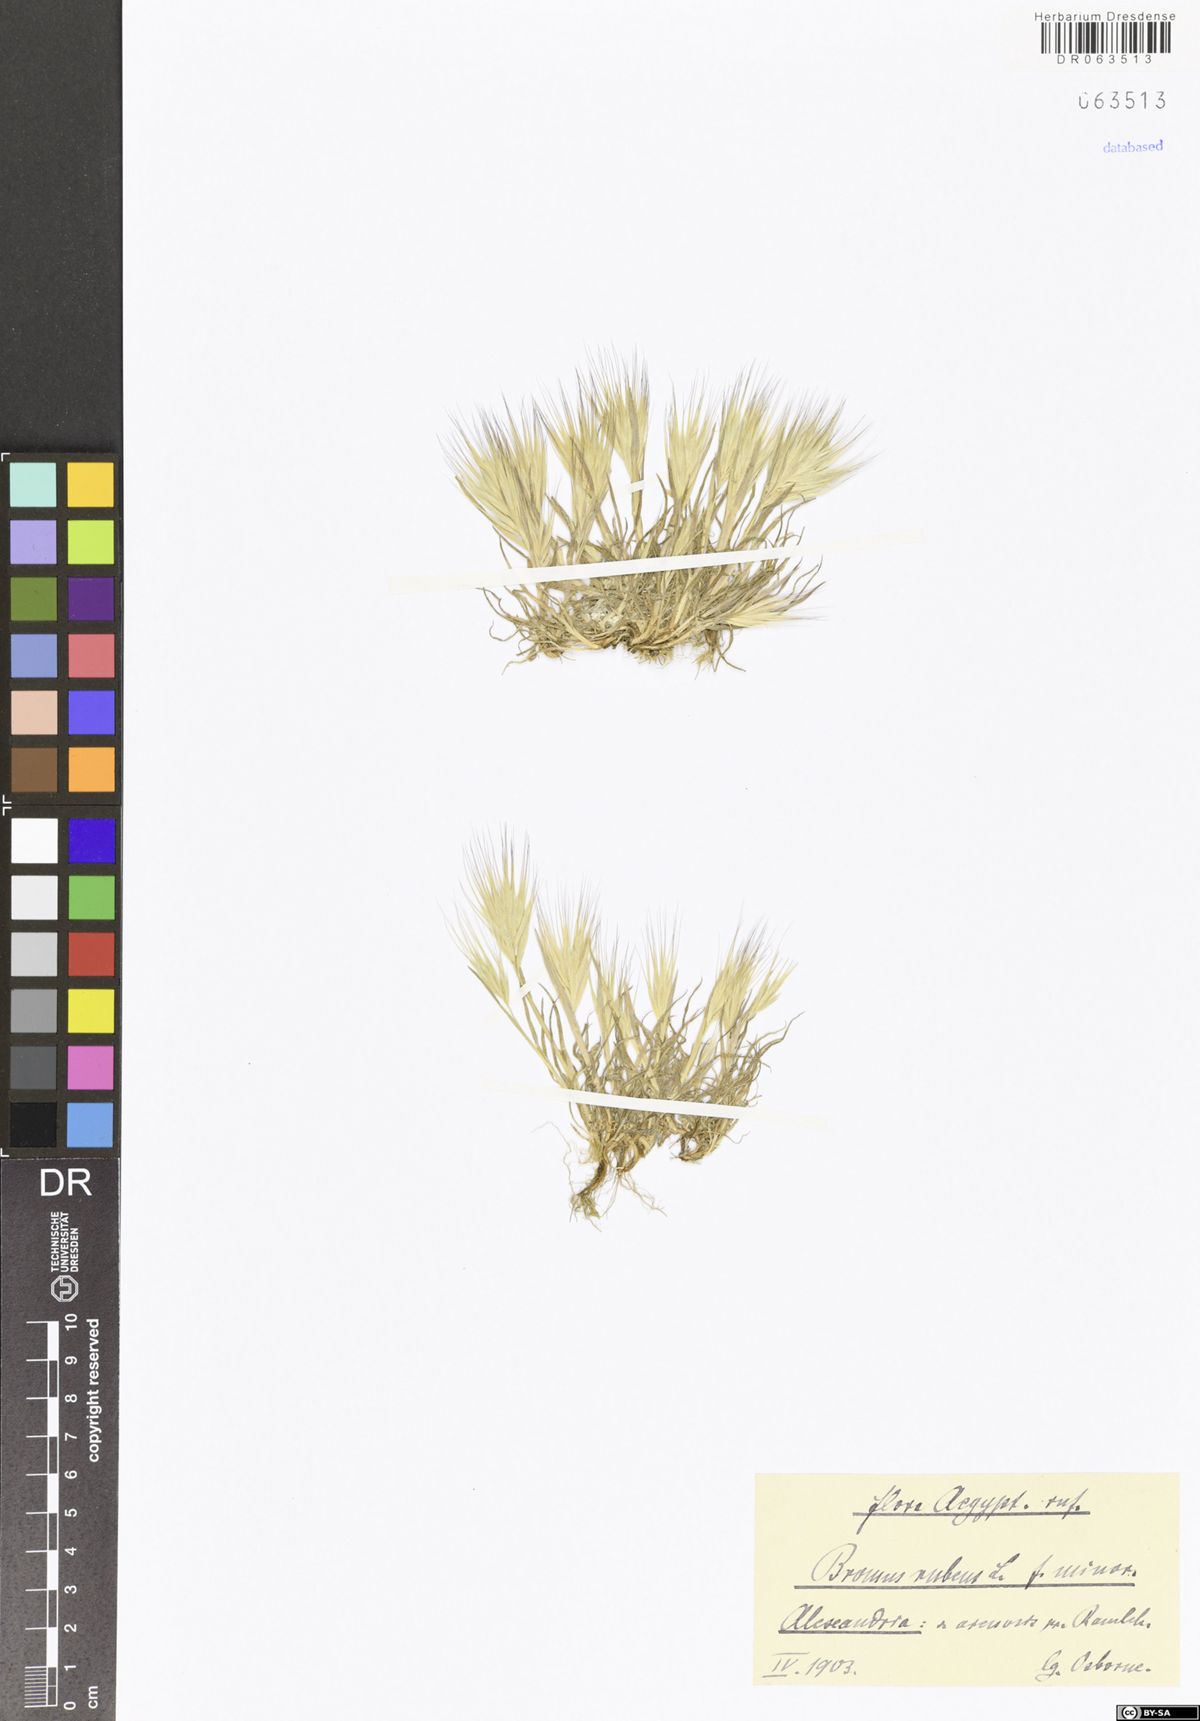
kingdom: Plantae
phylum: Tracheophyta
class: Liliopsida
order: Poales
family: Poaceae
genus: Bromus
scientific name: Bromus rubens
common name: Red brome
